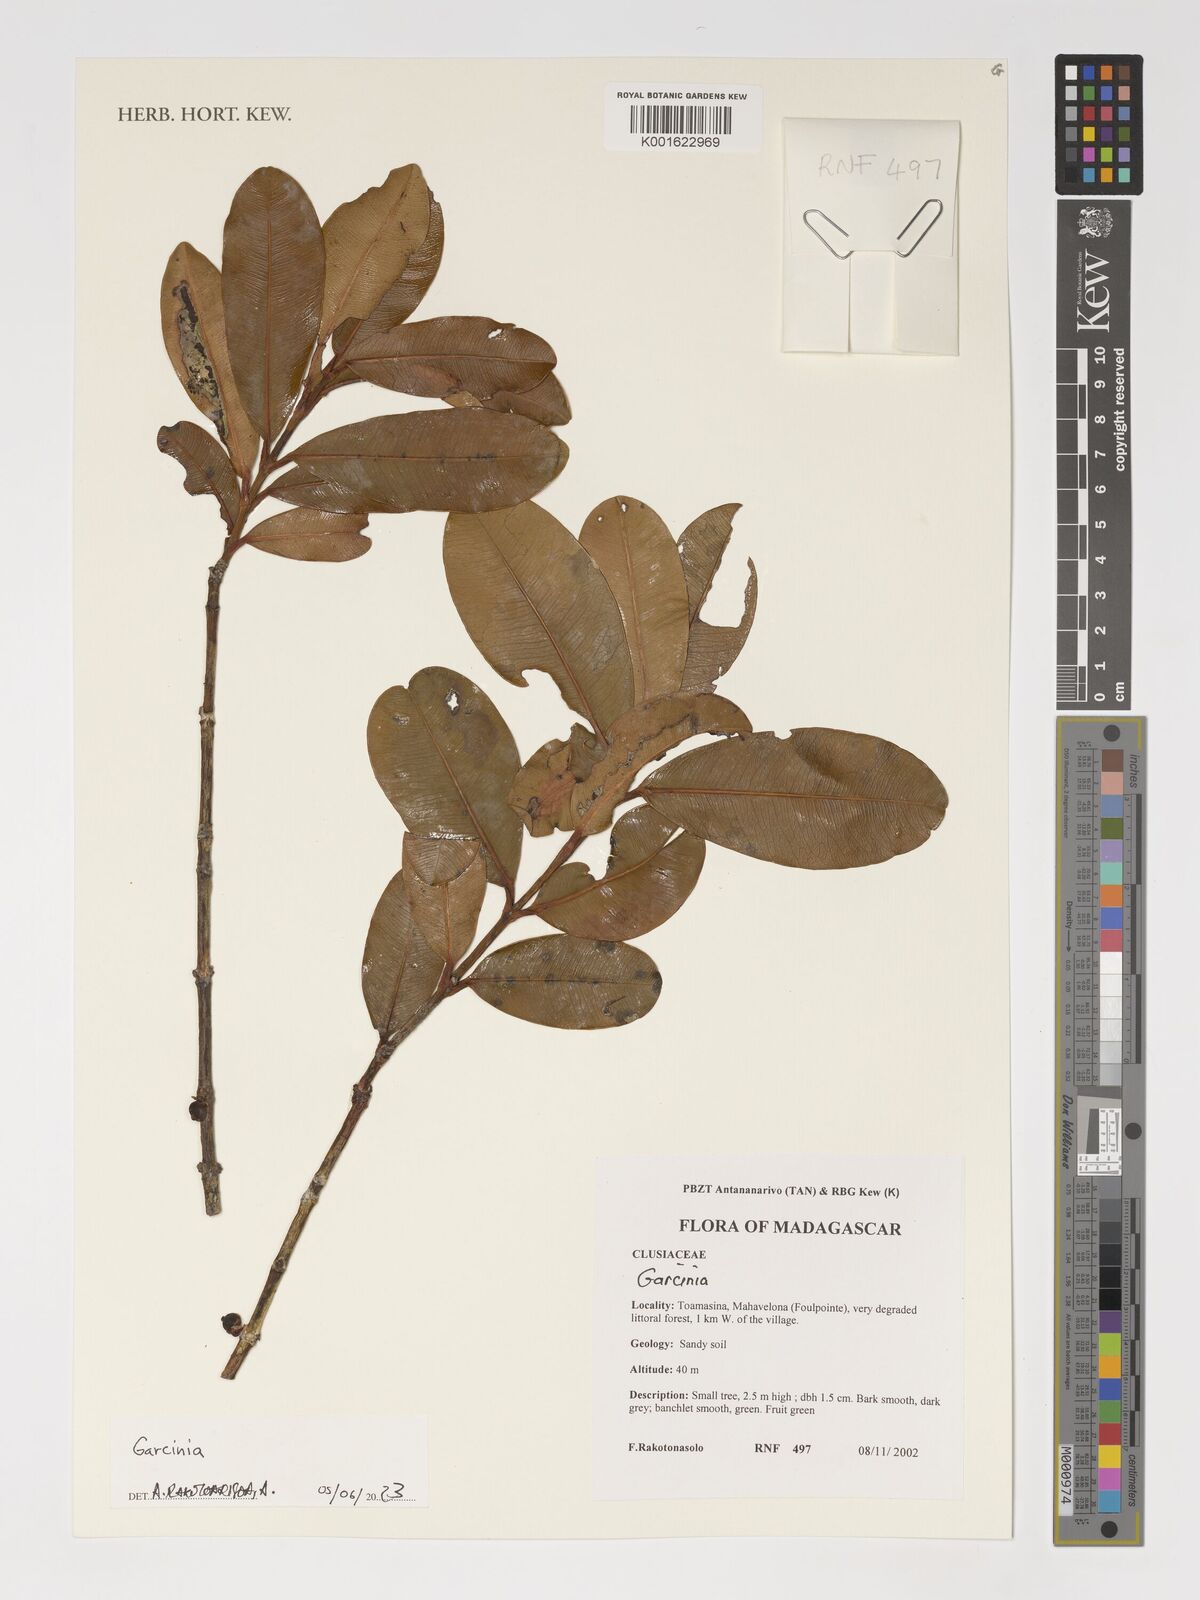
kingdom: Plantae
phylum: Tracheophyta
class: Magnoliopsida
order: Malpighiales
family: Clusiaceae
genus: Garcinia
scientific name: Garcinia
